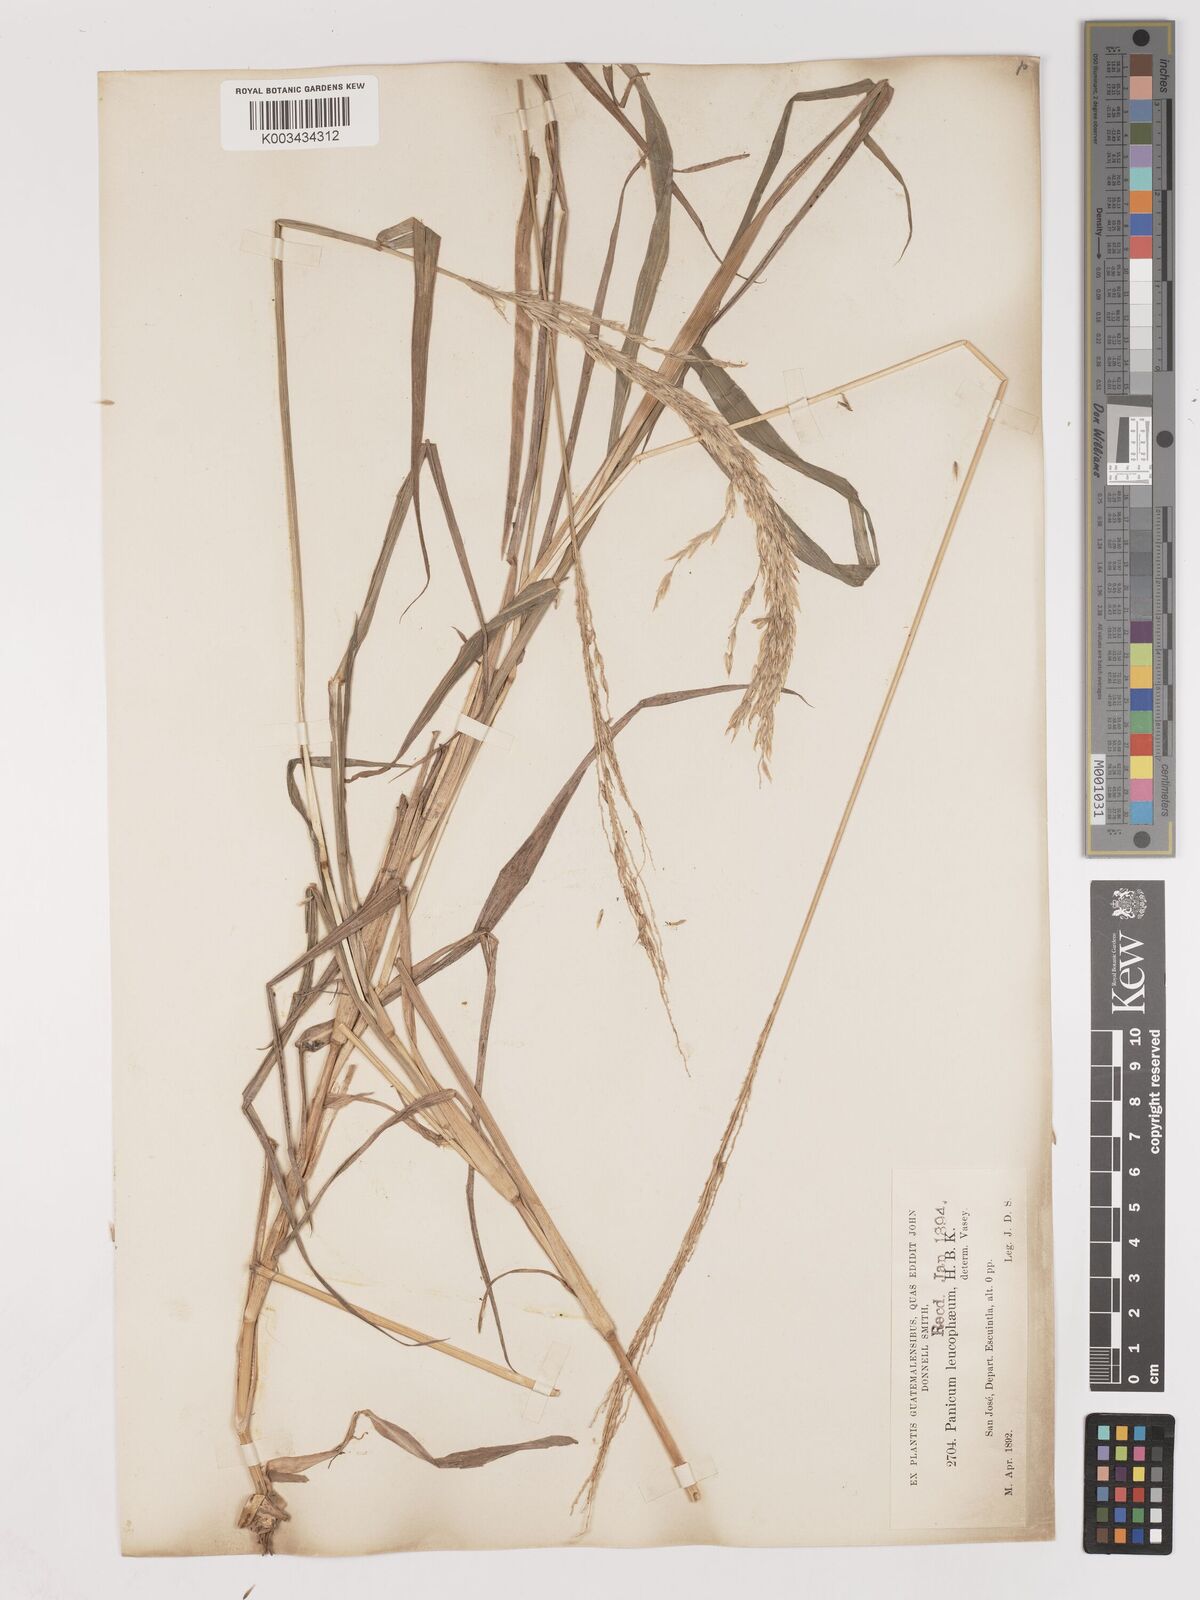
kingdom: Plantae
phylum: Tracheophyta
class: Liliopsida
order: Poales
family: Poaceae
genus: Digitaria
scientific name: Digitaria insularis
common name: Sourgrass
